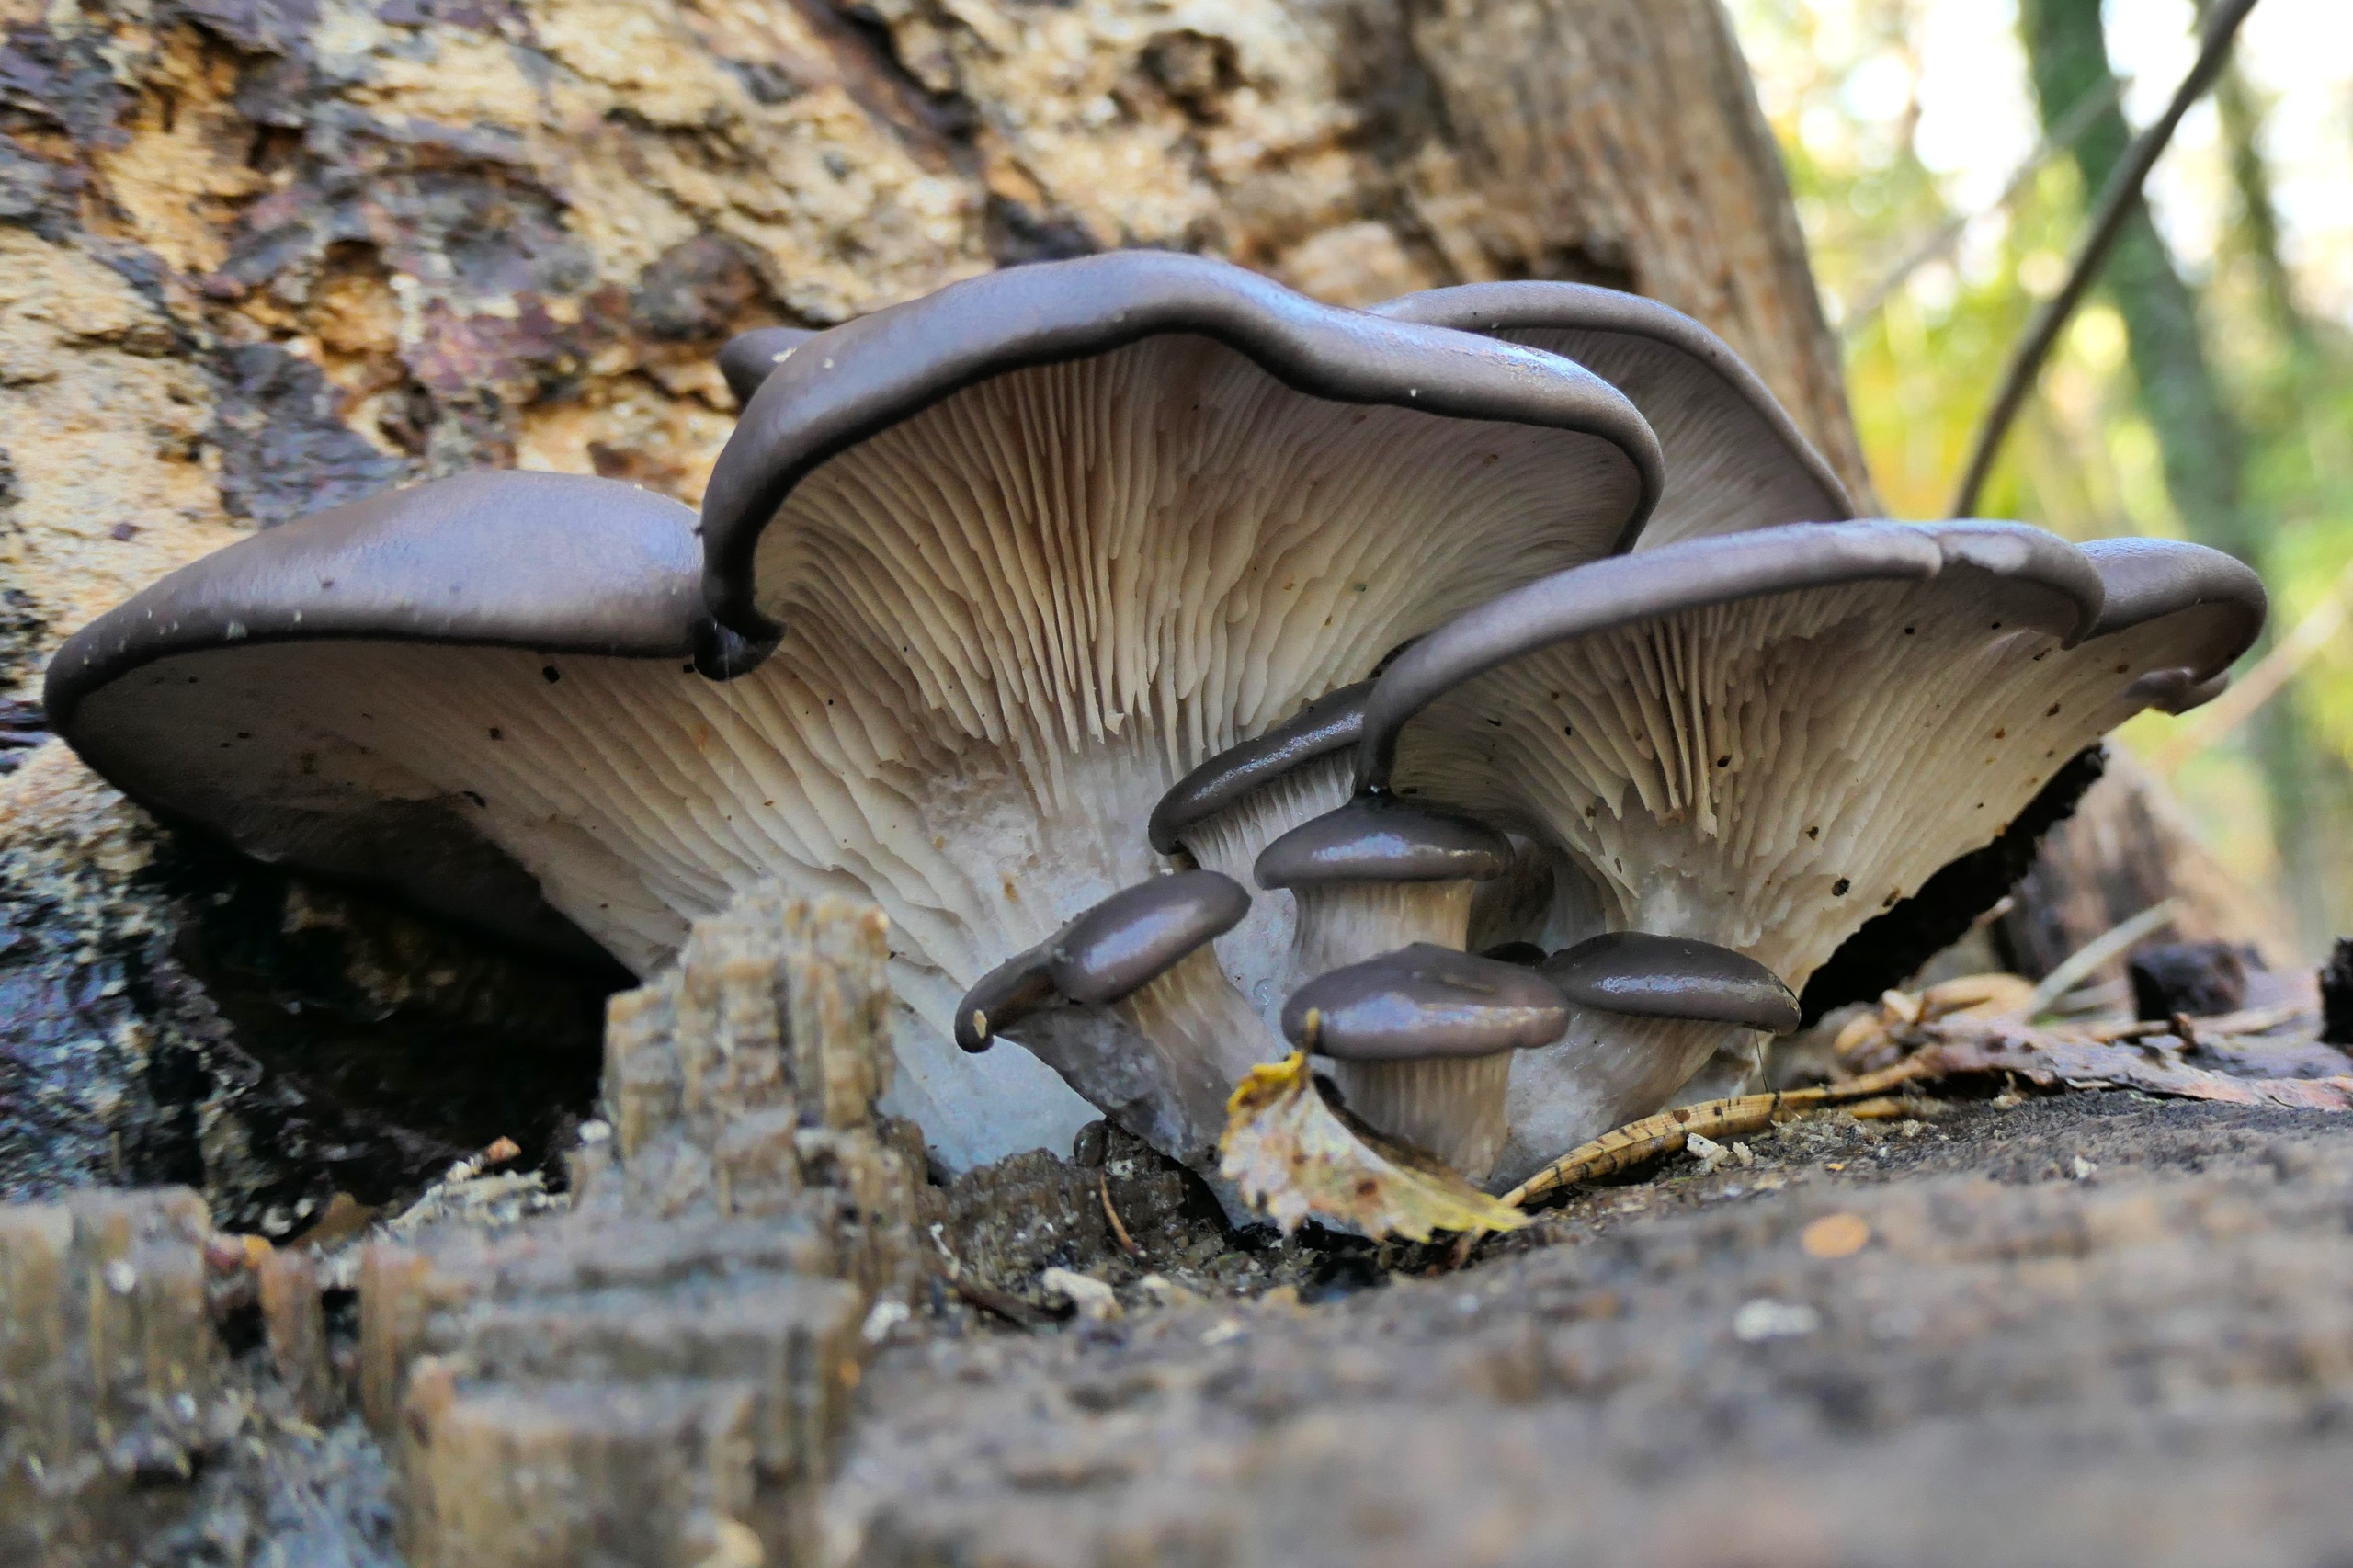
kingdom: Fungi
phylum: Basidiomycota
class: Agaricomycetes
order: Agaricales
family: Pleurotaceae
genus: Pleurotus
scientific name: Pleurotus ostreatus
